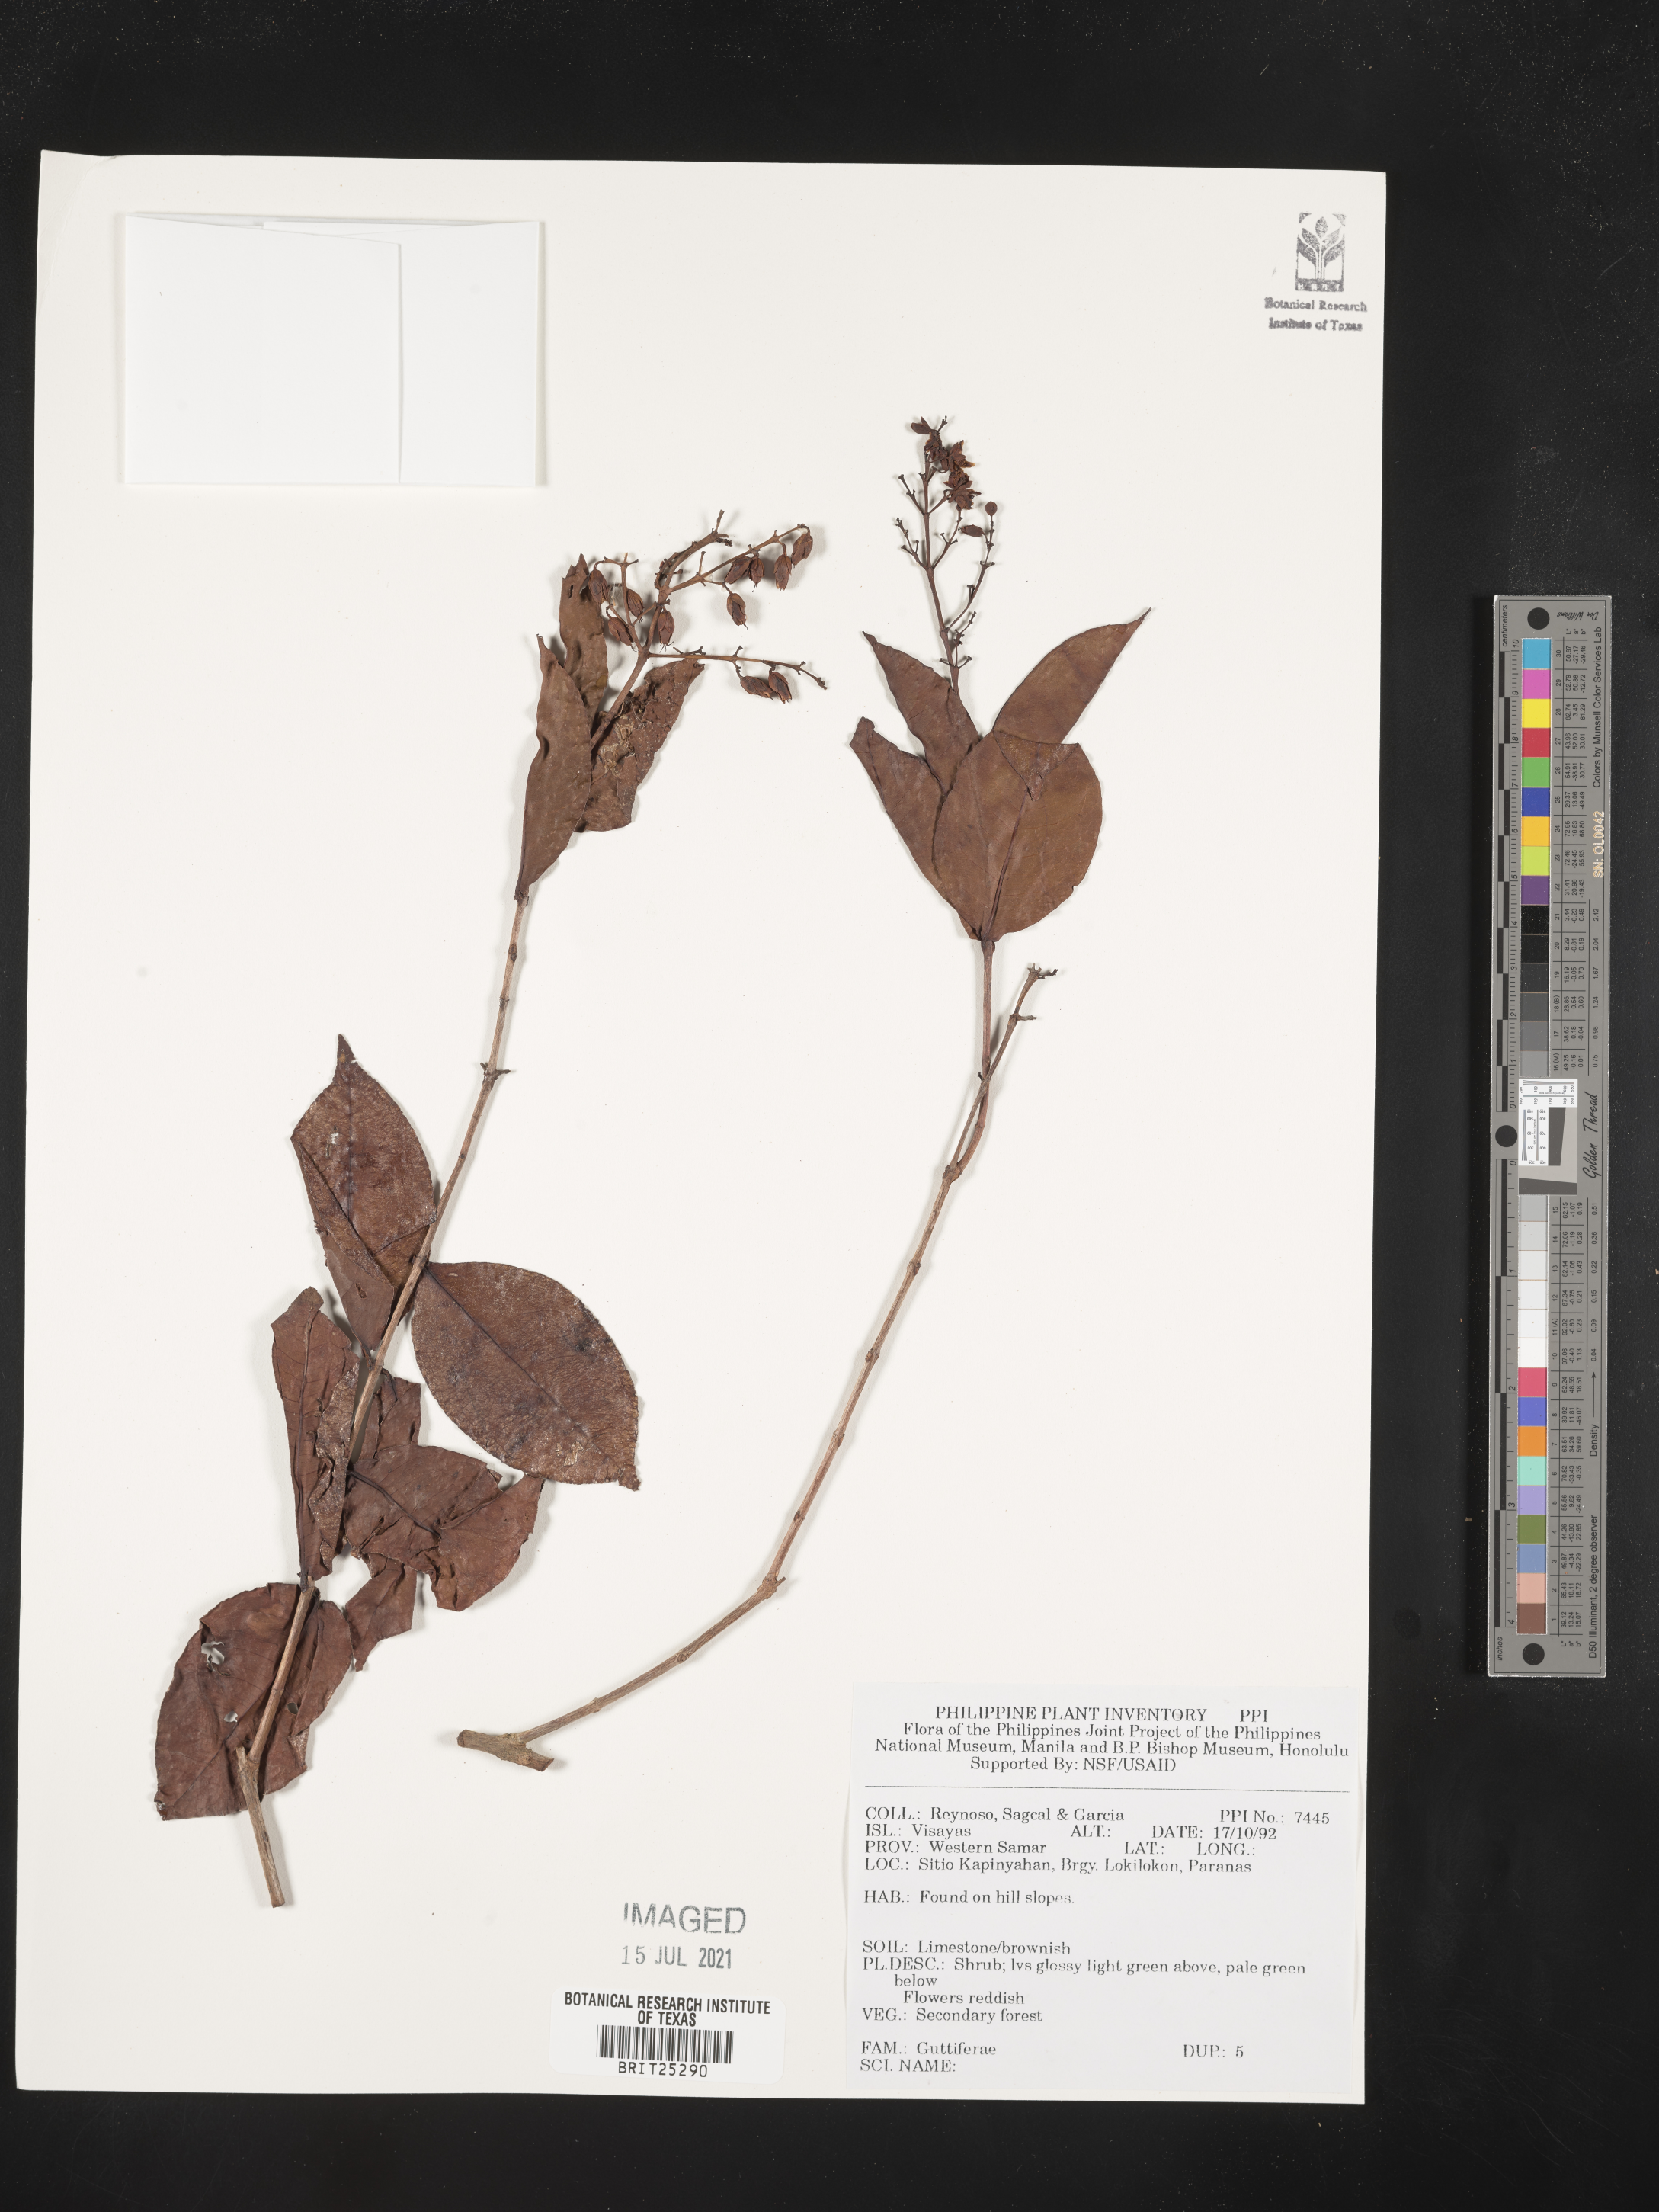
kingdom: Plantae
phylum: Tracheophyta
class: Magnoliopsida
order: Malpighiales
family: Hypericaceae
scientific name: Hypericaceae
